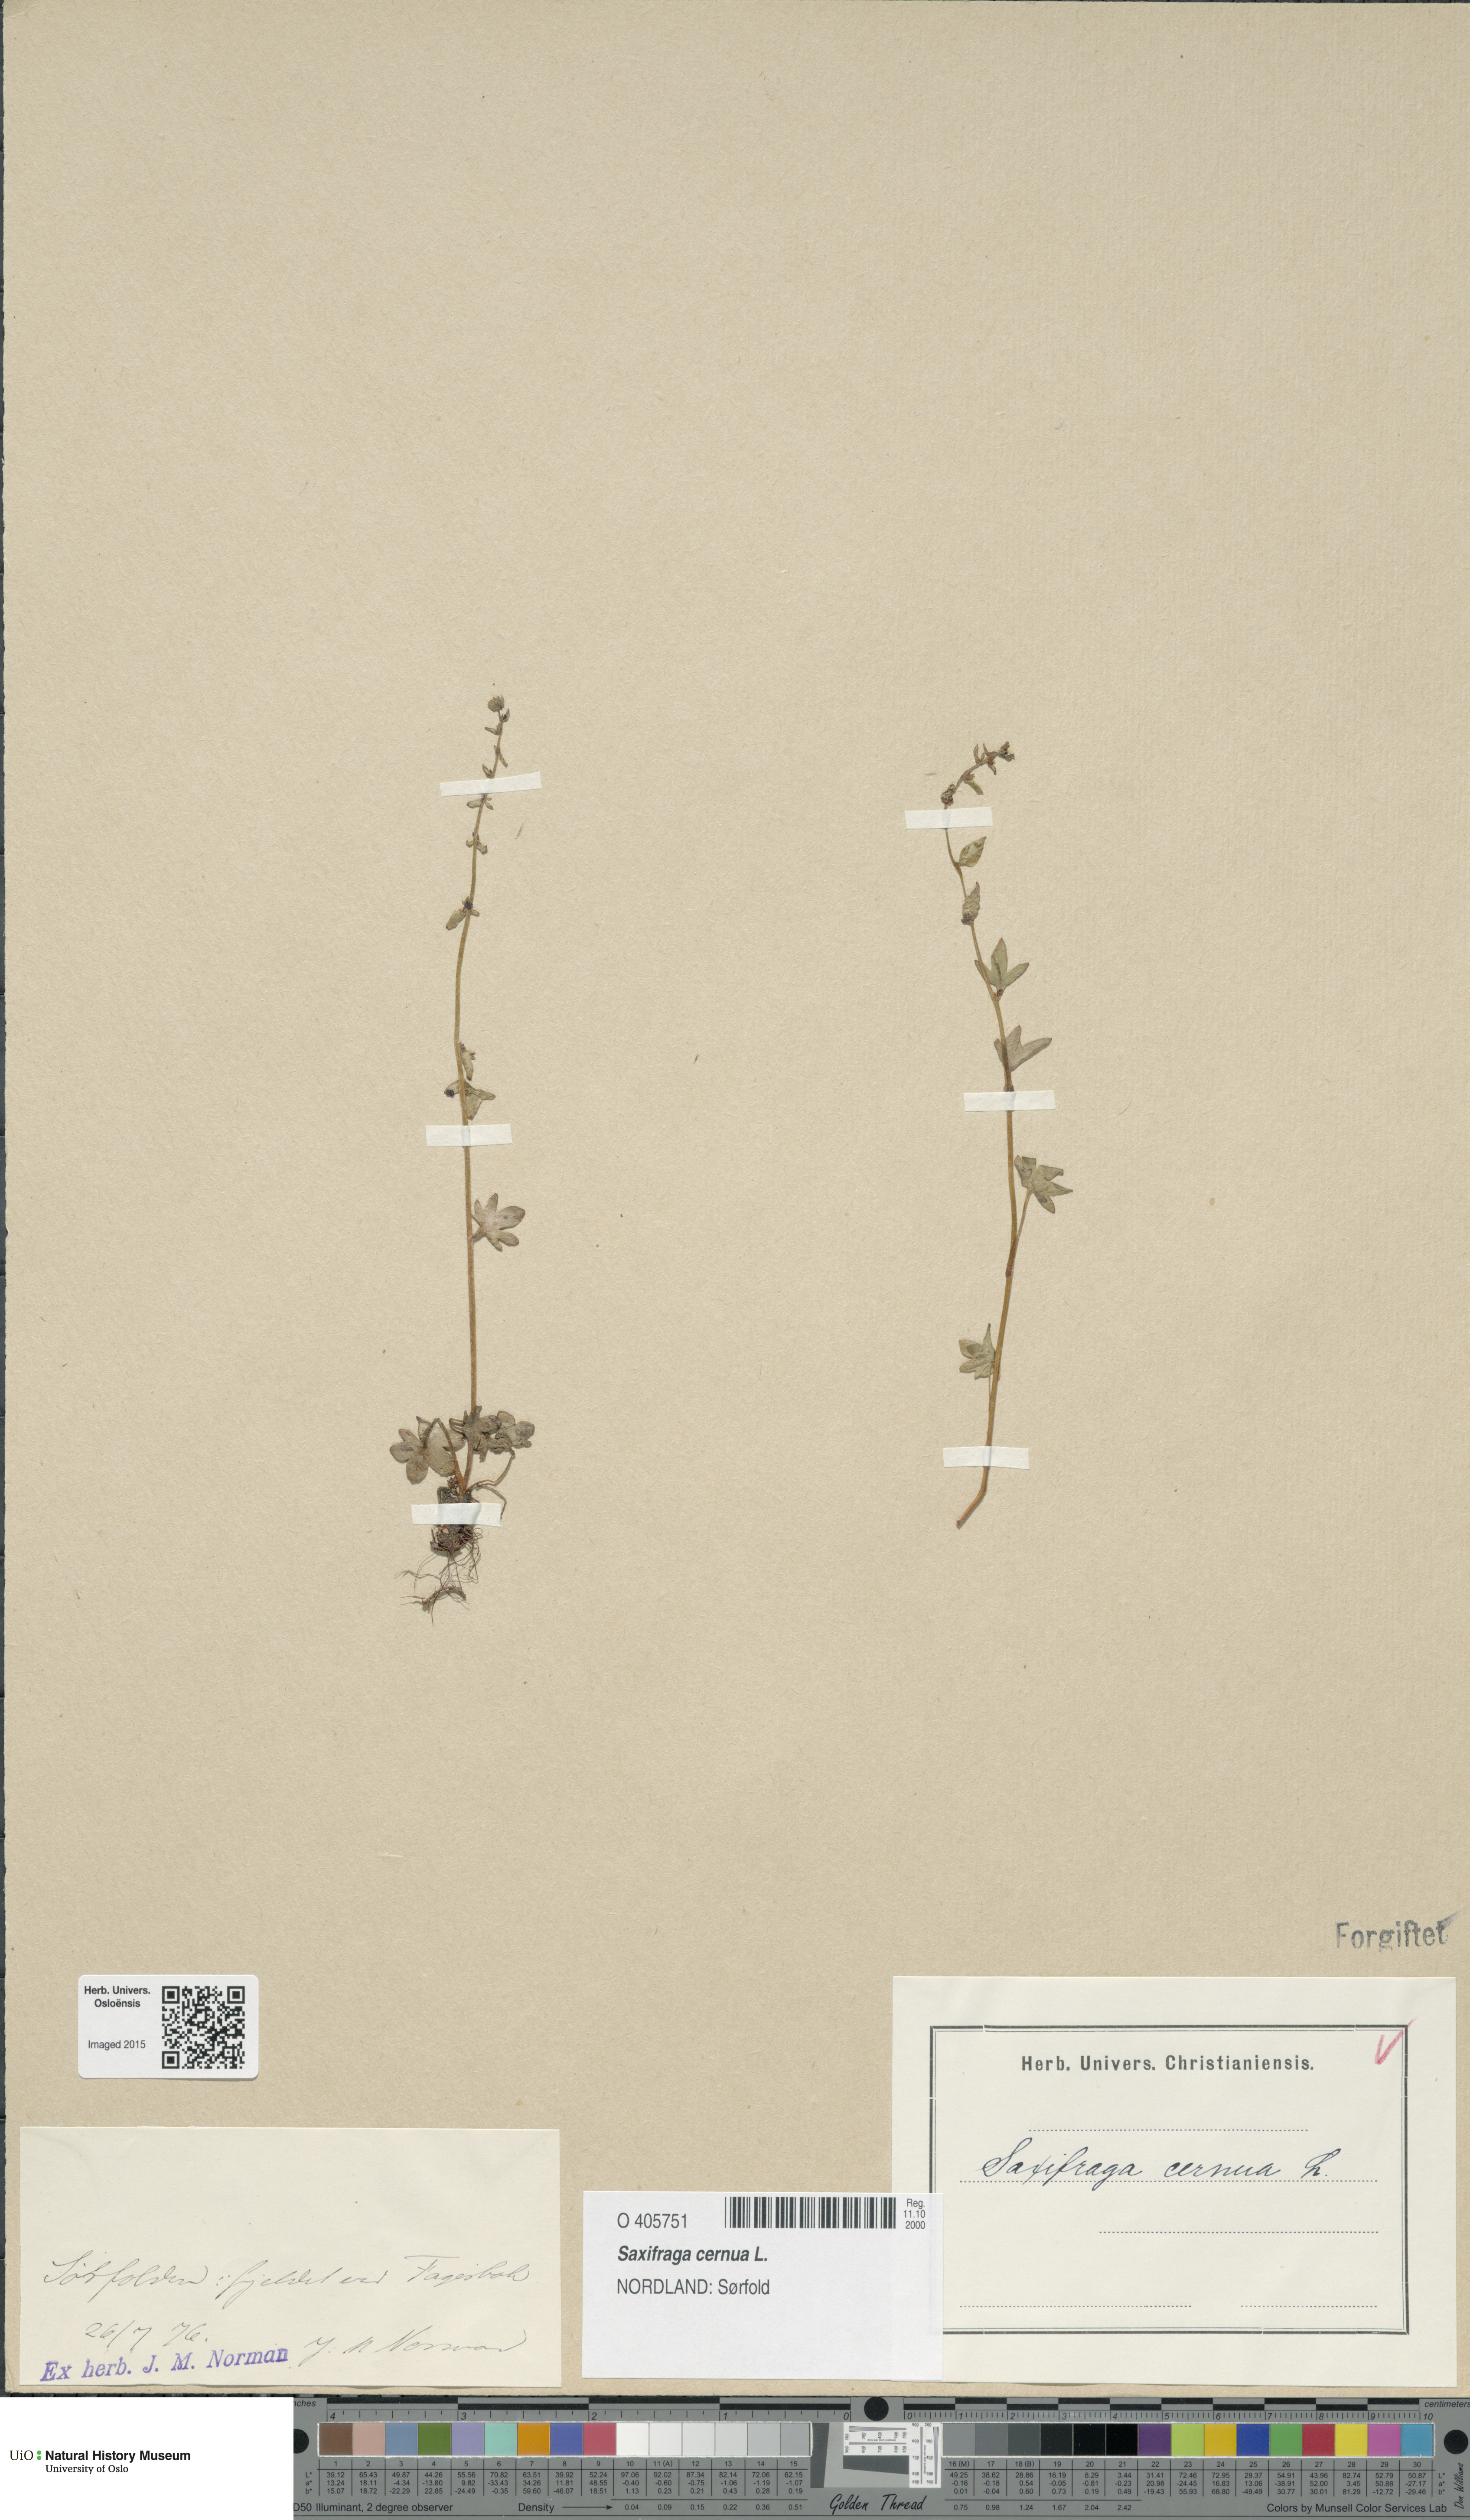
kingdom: Plantae
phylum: Tracheophyta
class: Magnoliopsida
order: Saxifragales
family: Saxifragaceae
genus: Saxifraga
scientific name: Saxifraga cernua
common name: Drooping saxifrage
